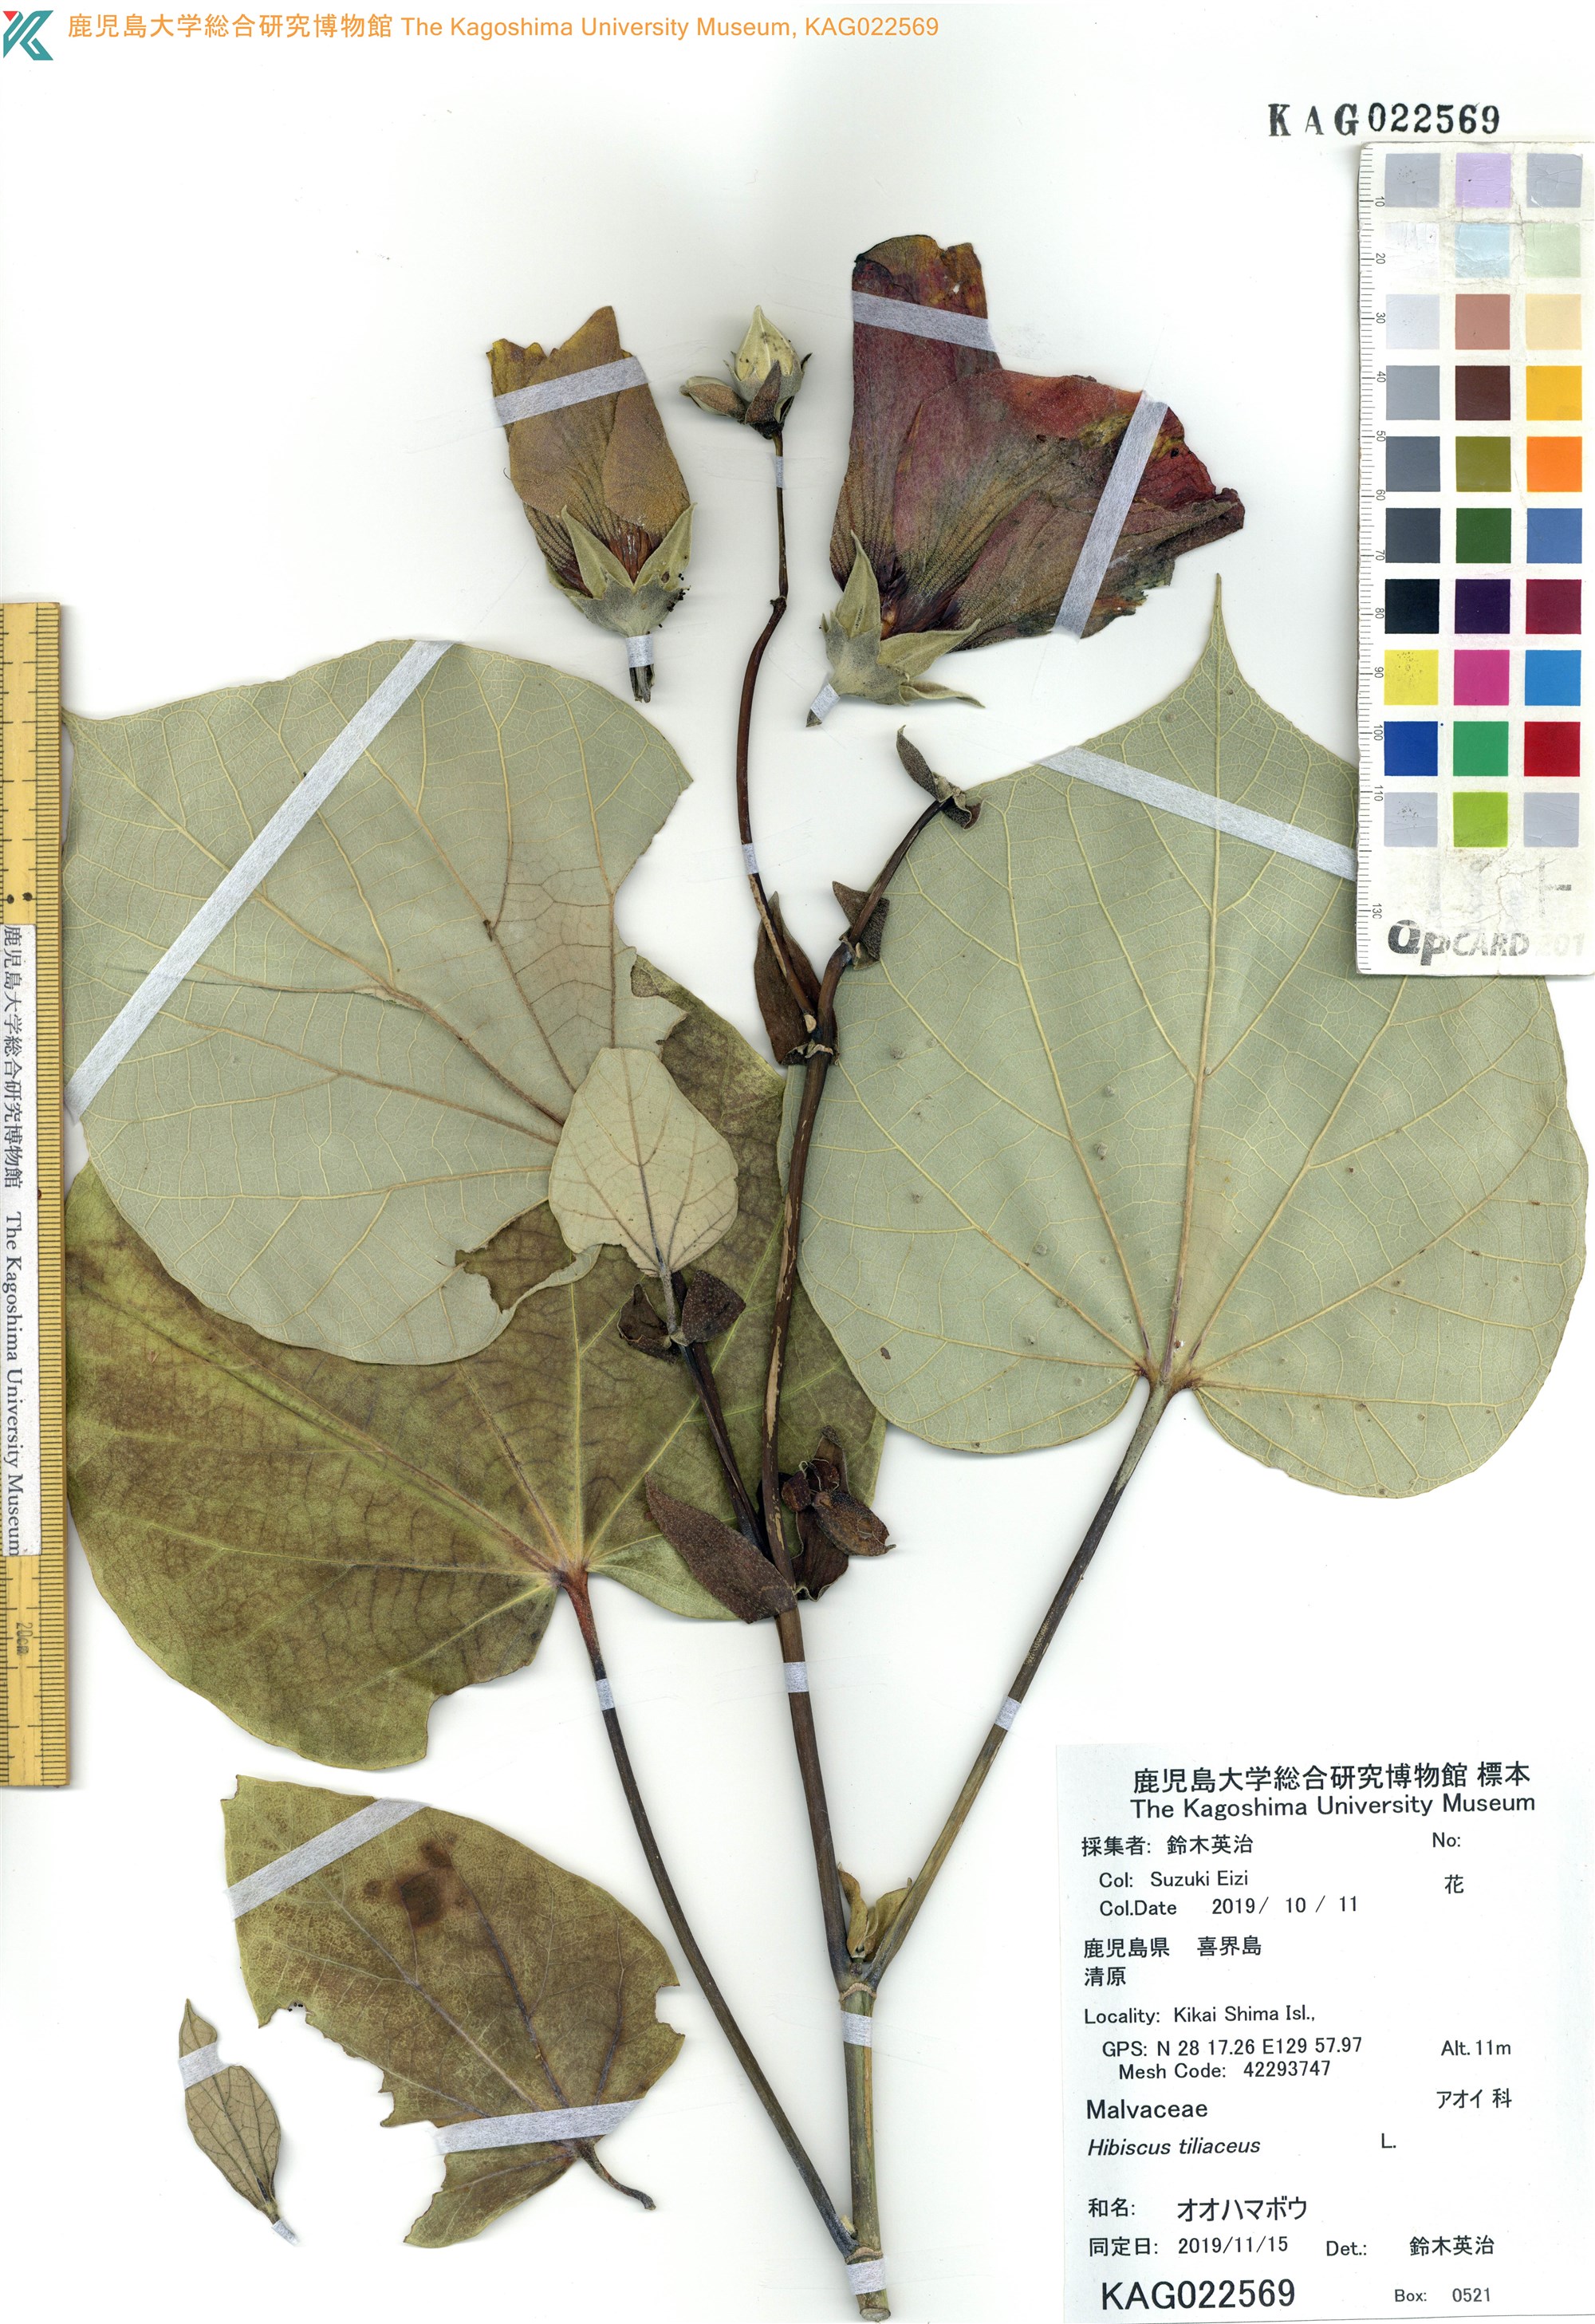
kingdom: Plantae
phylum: Tracheophyta
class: Magnoliopsida
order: Malvales
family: Malvaceae
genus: Talipariti
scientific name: Talipariti tiliaceum
